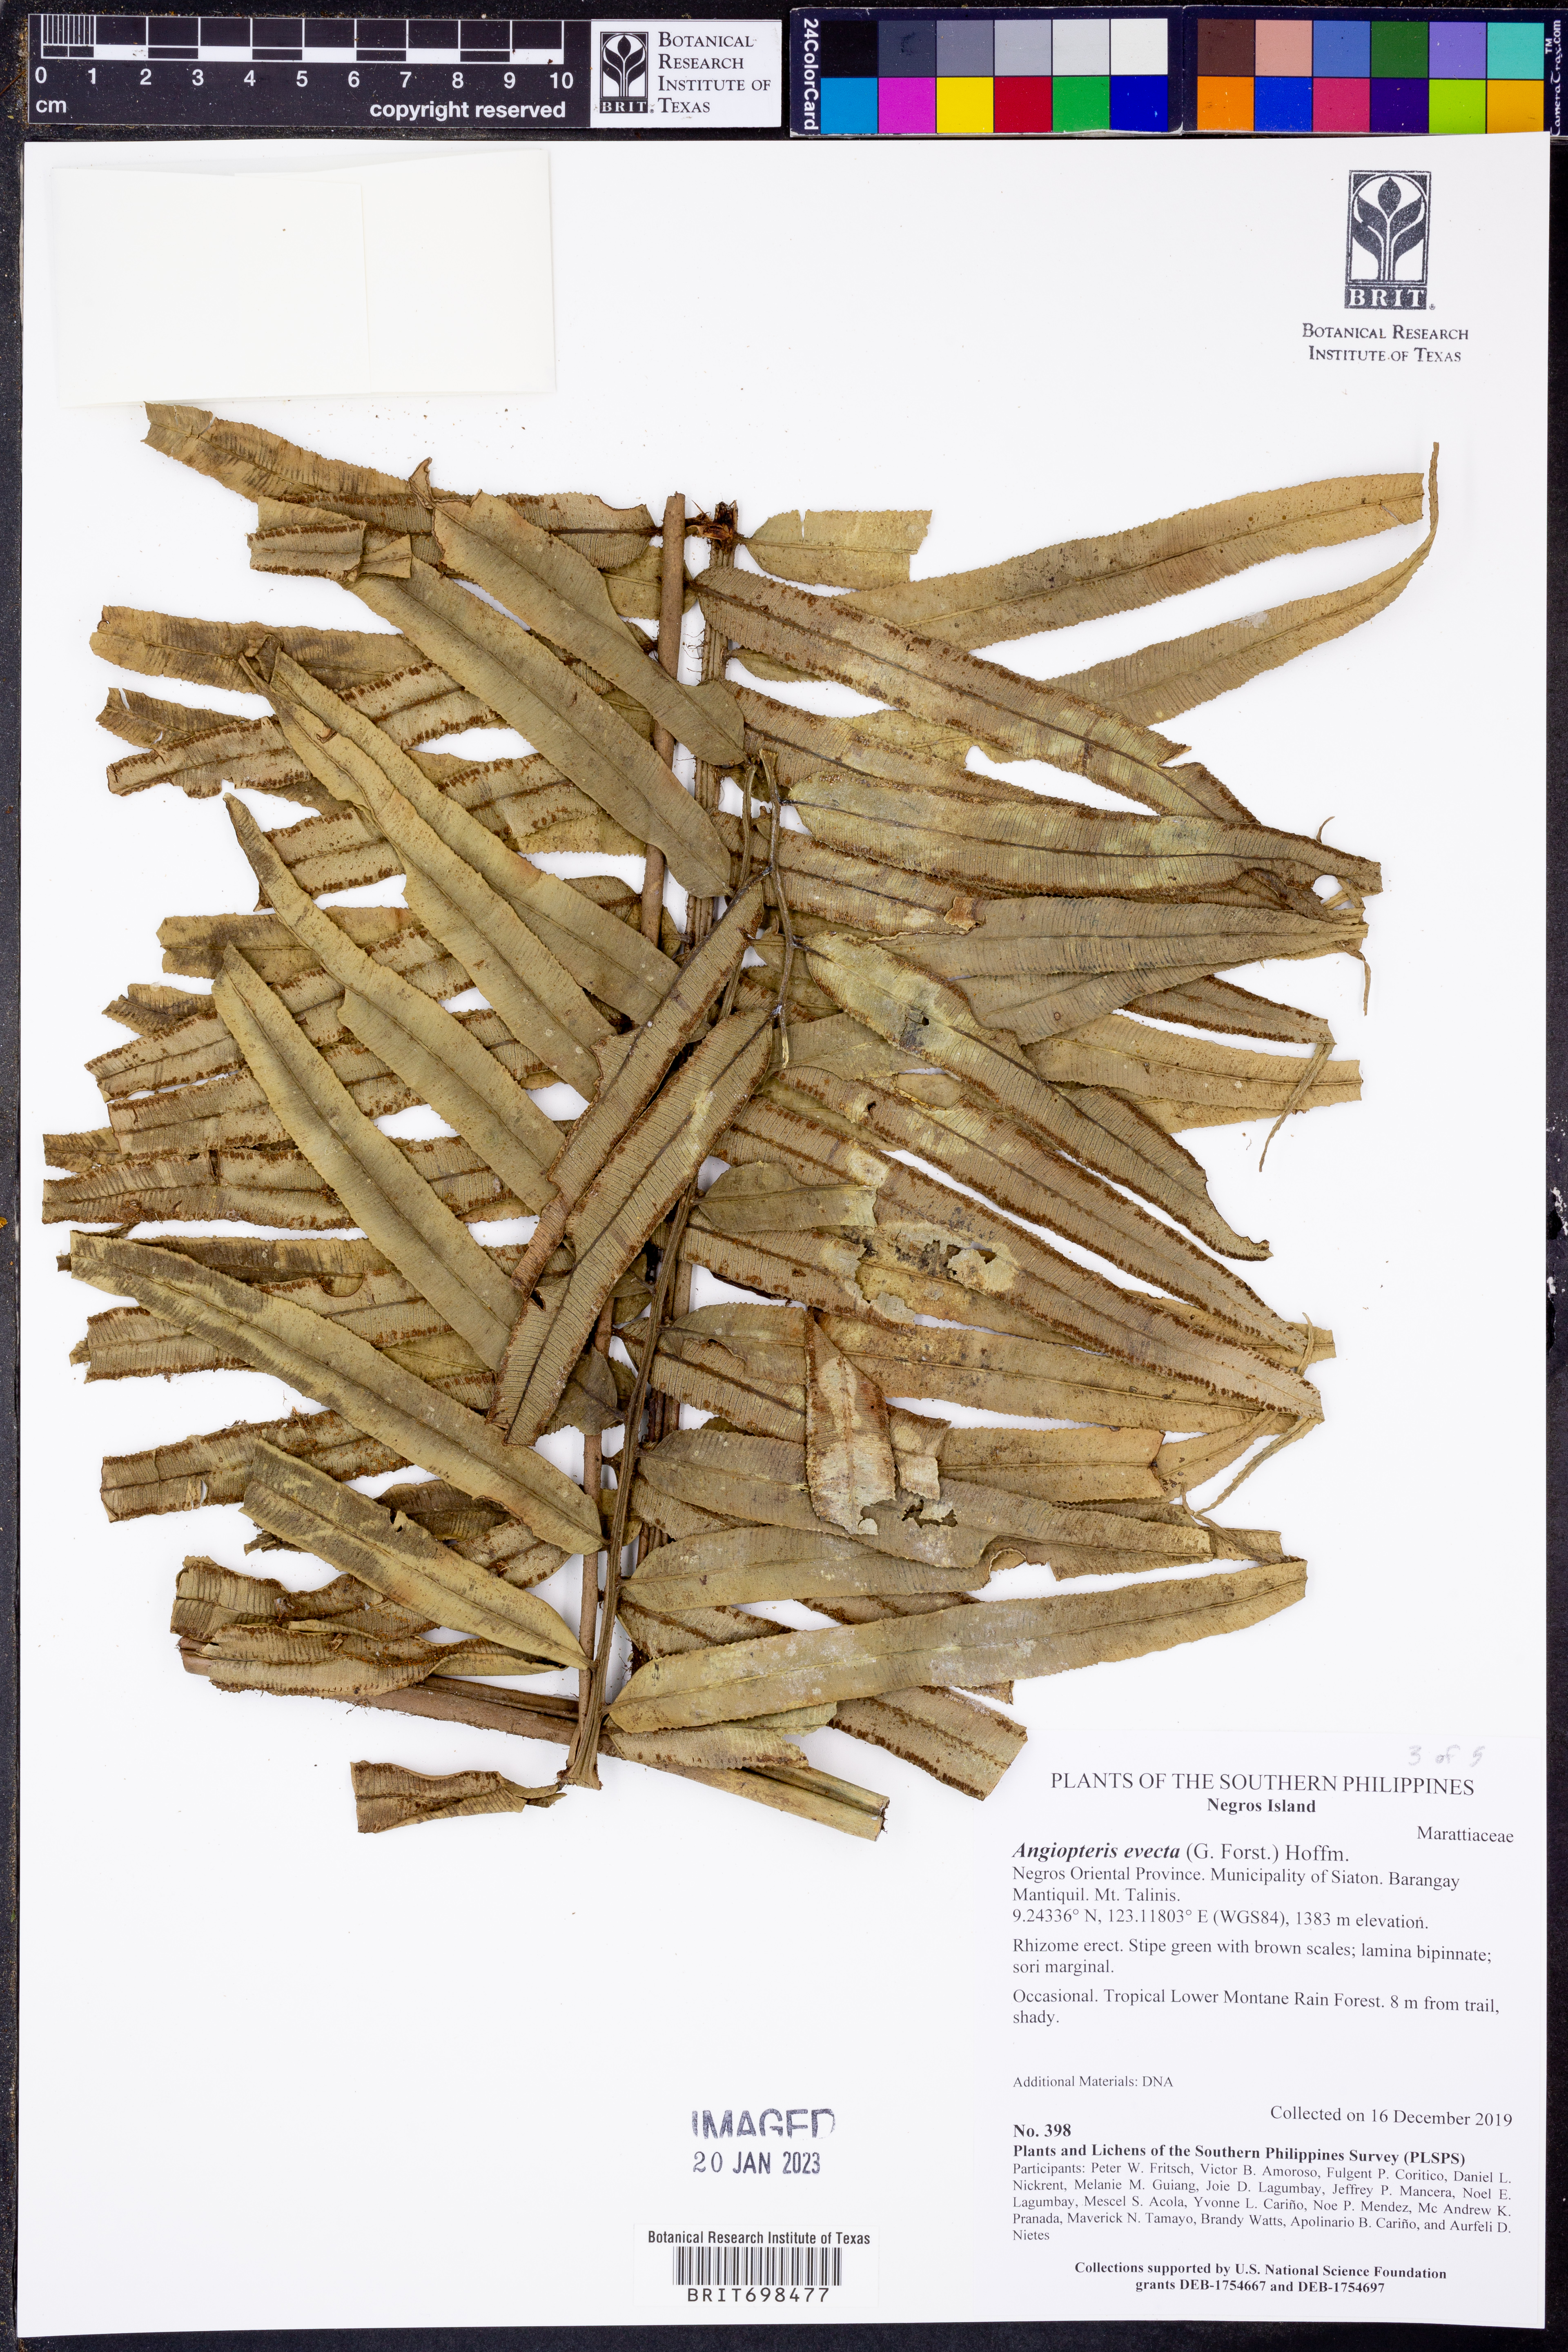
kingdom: Plantae
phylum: Tracheophyta
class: Polypodiopsida
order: Marattiales
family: Marattiaceae
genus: Angiopteris
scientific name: Angiopteris evecta
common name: Mule's-foot fern
